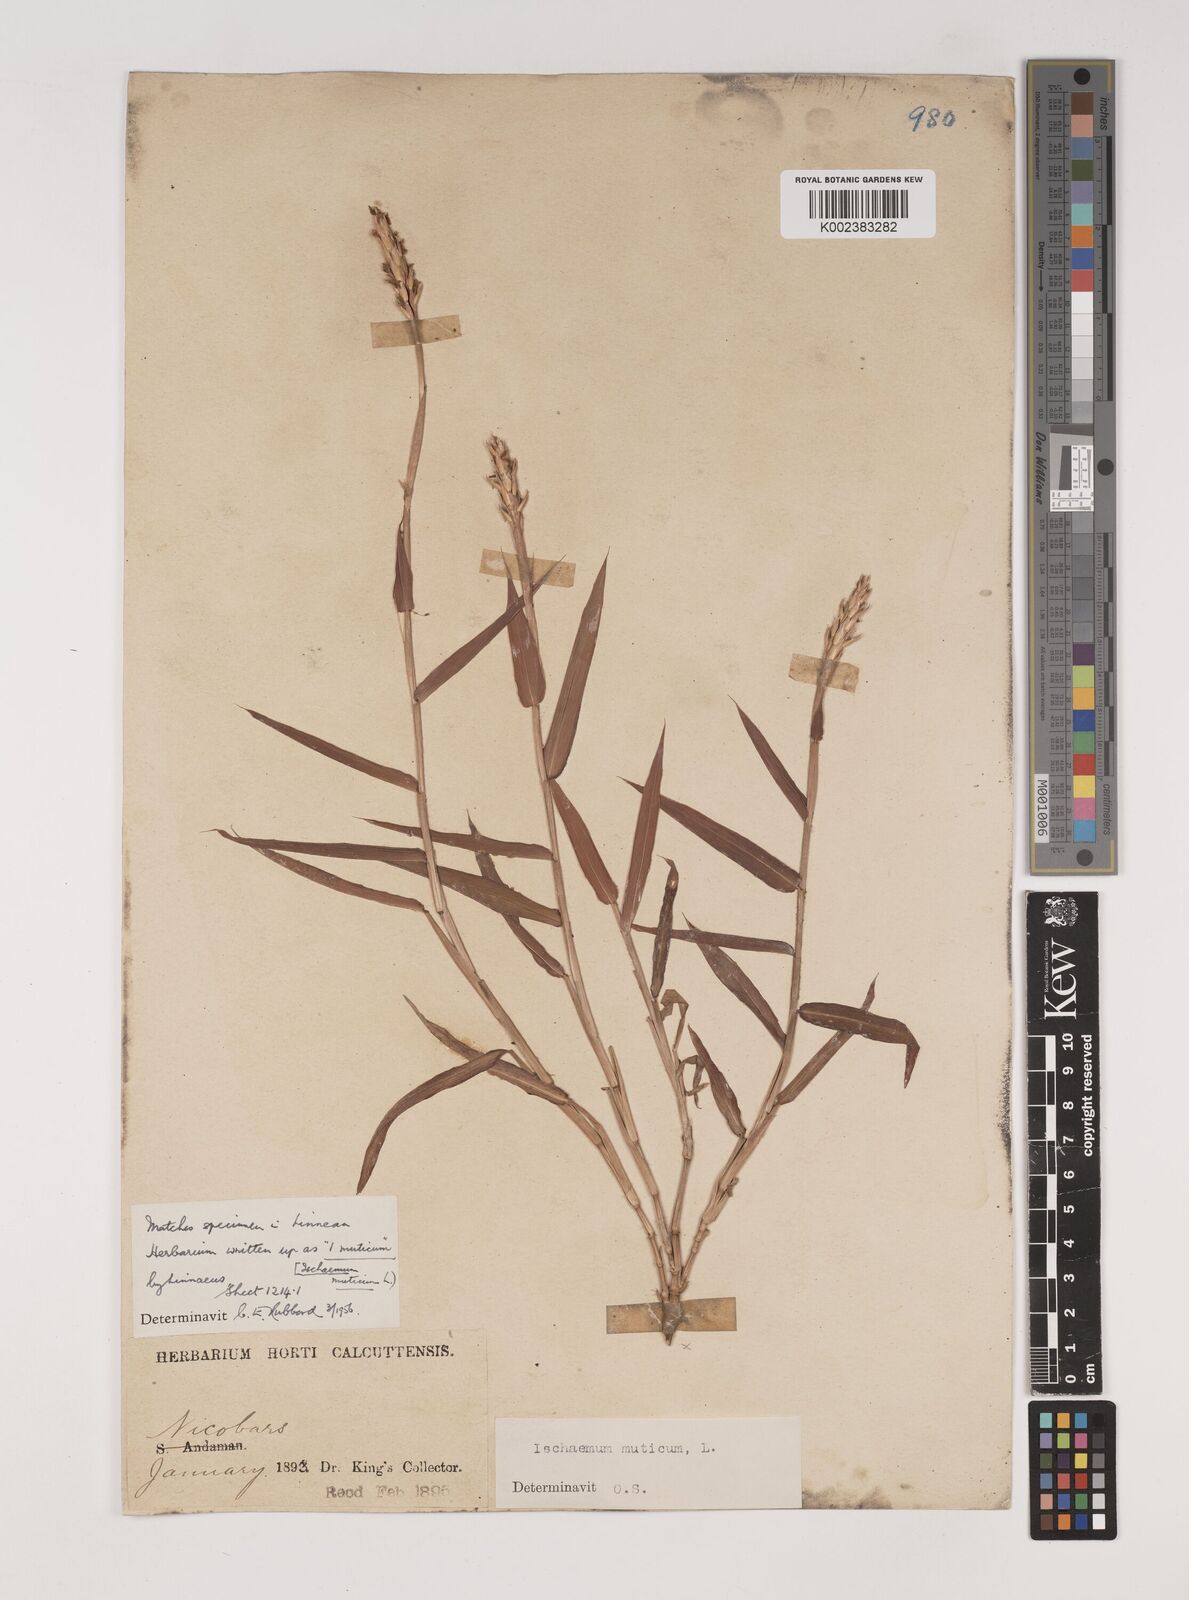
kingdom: Plantae
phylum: Tracheophyta
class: Liliopsida
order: Poales
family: Poaceae
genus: Ischaemum
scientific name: Ischaemum muticum
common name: Drought grass
